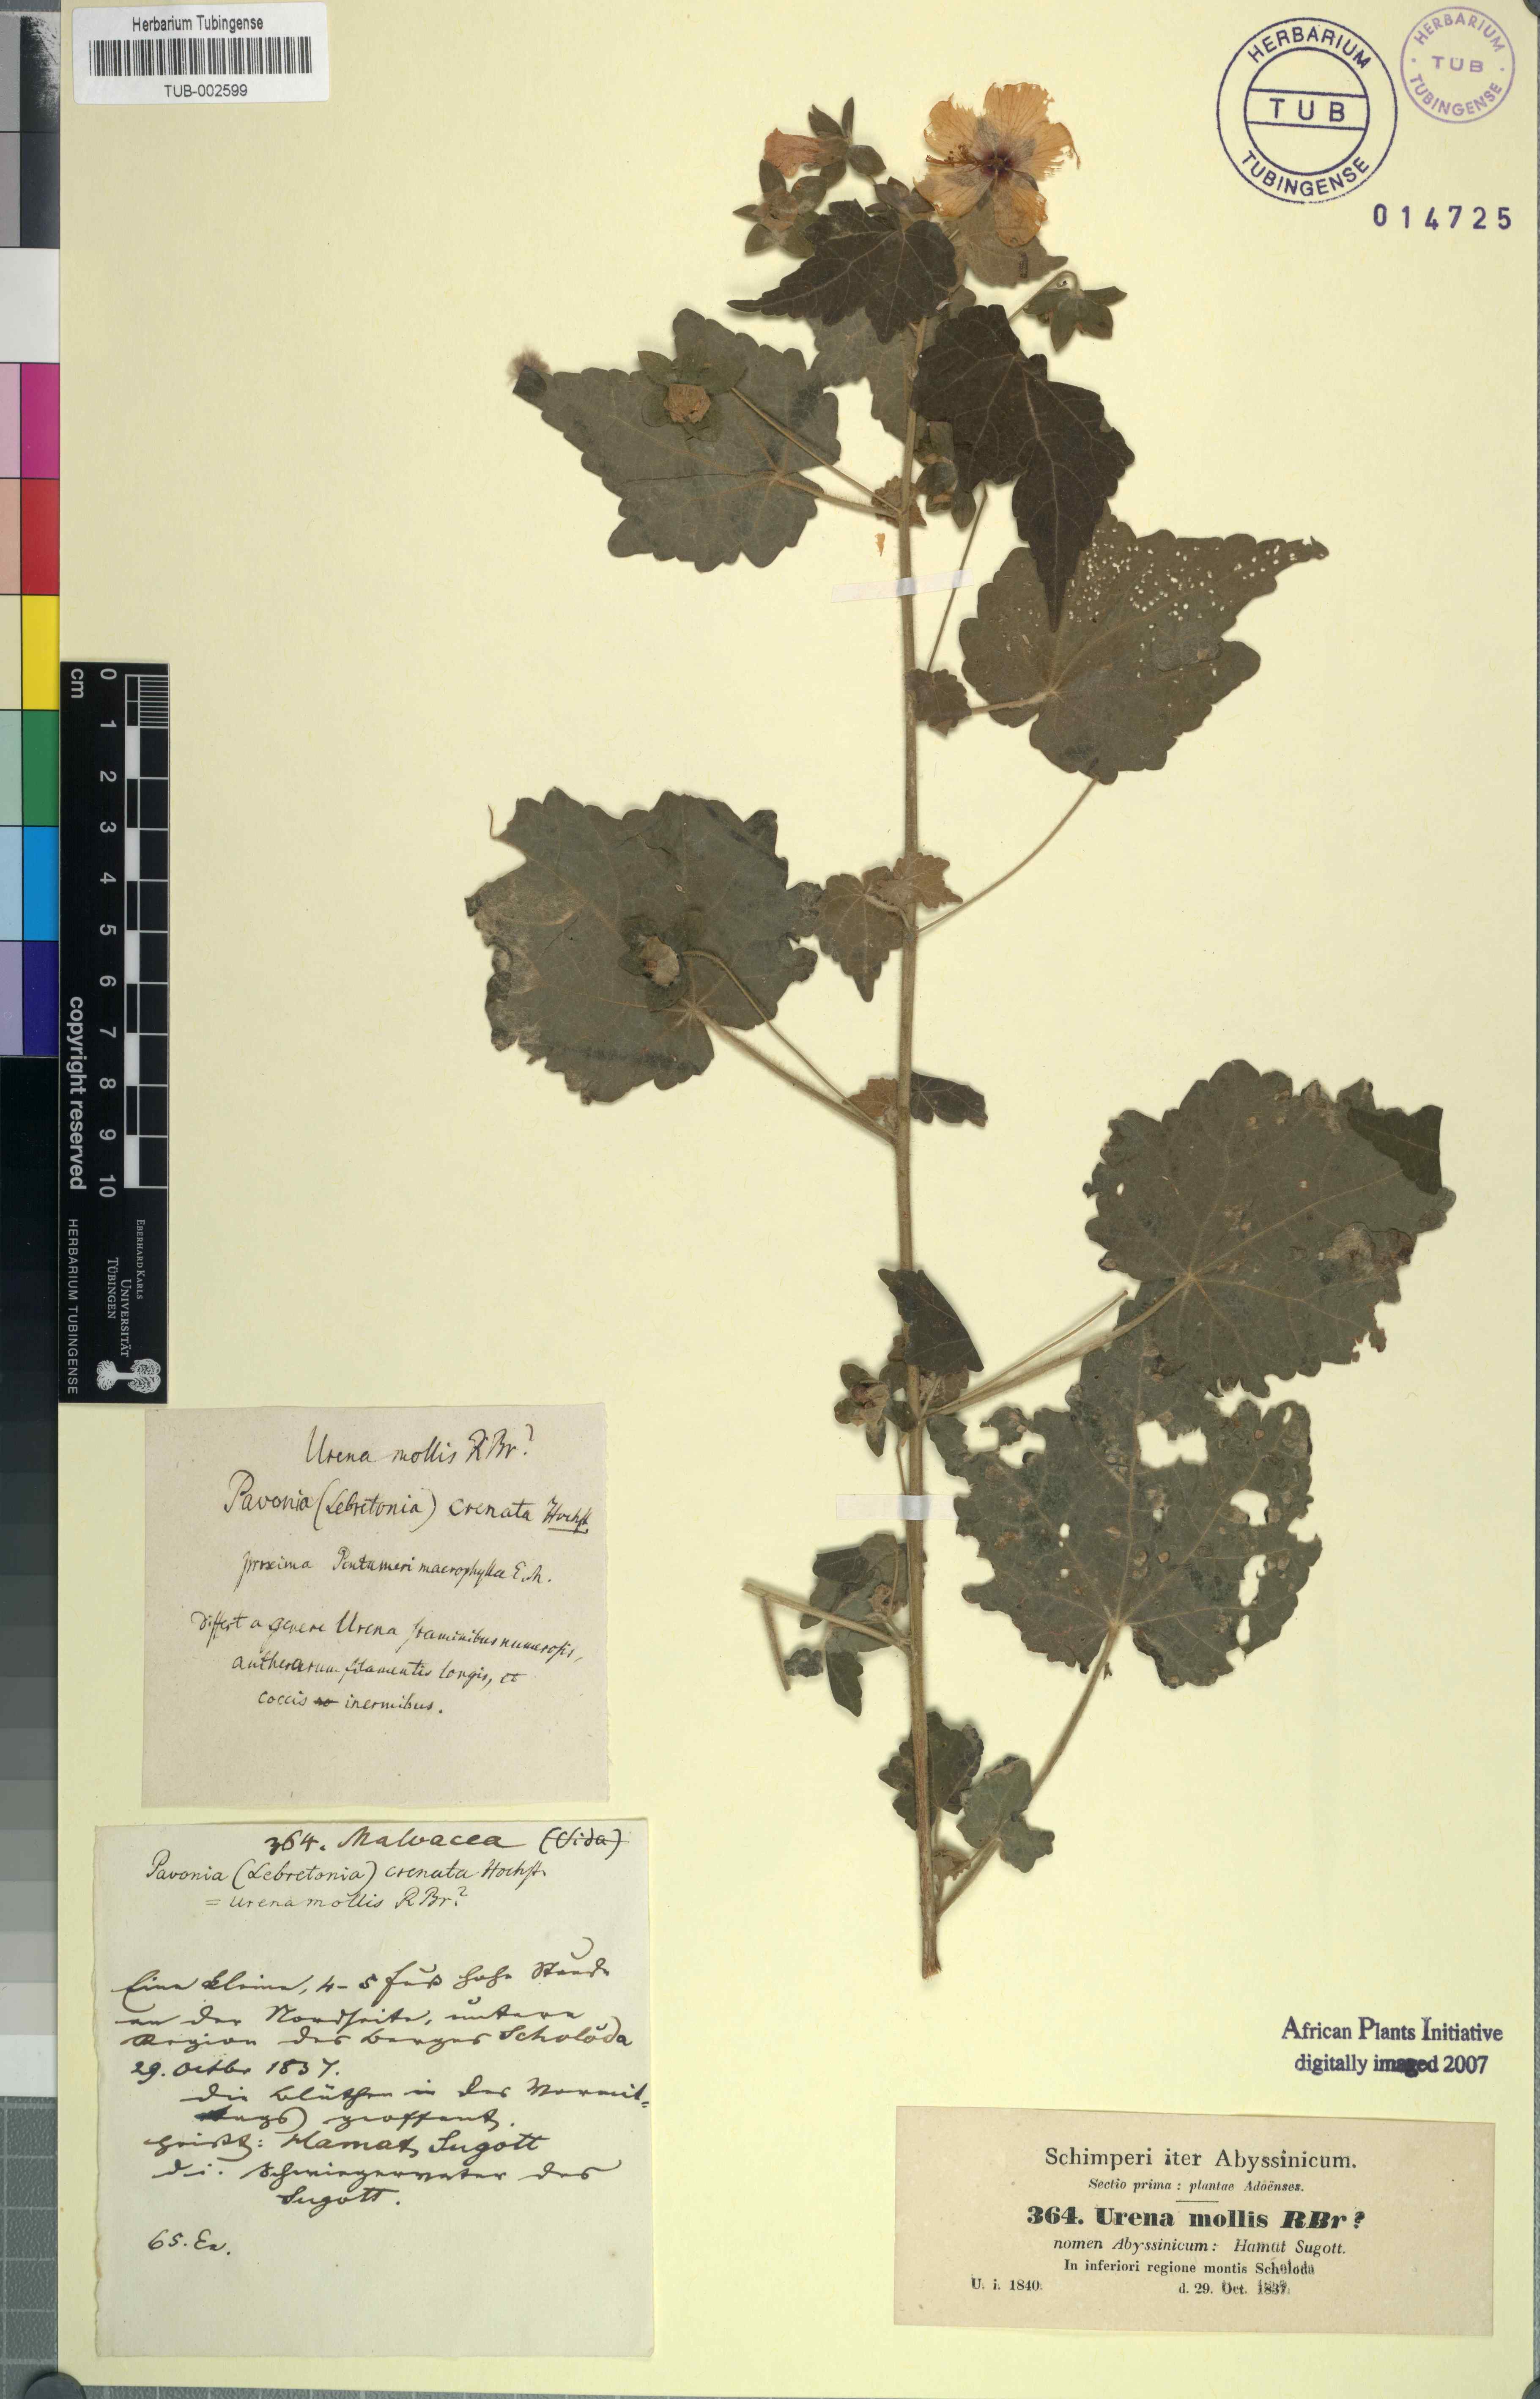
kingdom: Plantae
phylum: Tracheophyta
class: Magnoliopsida
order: Malvales
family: Malvaceae
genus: Pavonia
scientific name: Pavonia burchellii
